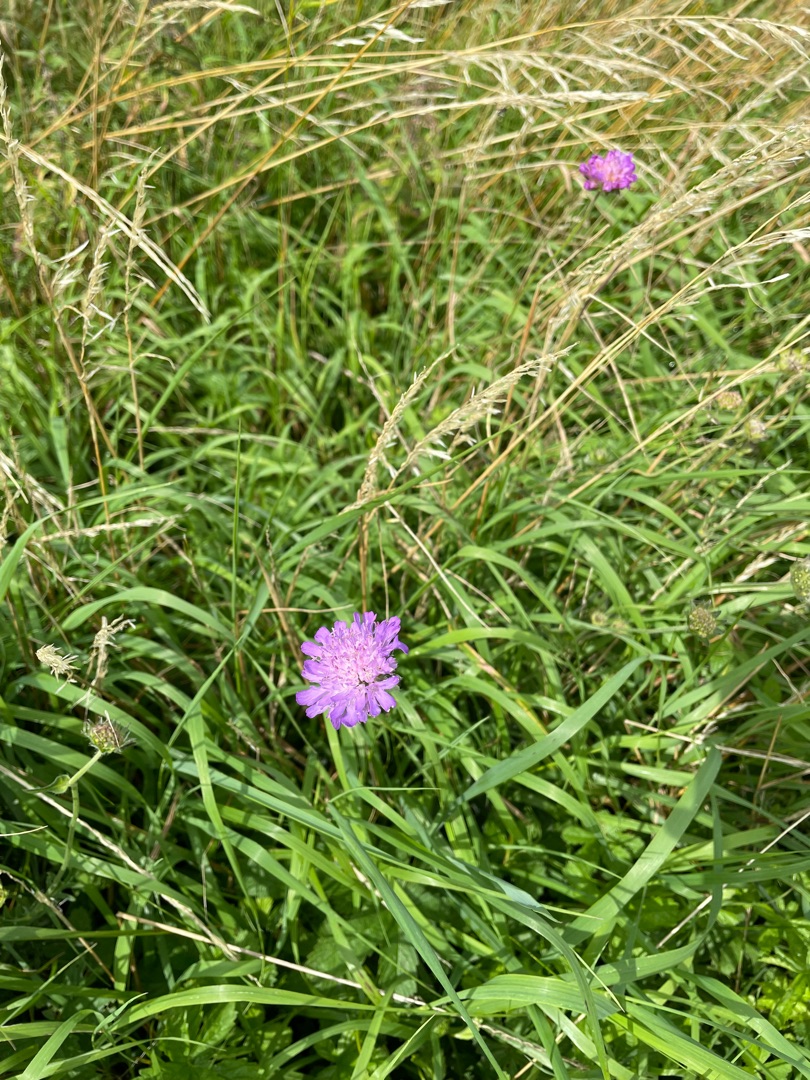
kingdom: Plantae
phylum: Tracheophyta
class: Magnoliopsida
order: Dipsacales
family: Caprifoliaceae
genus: Knautia
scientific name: Knautia arvensis
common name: Blåhat
